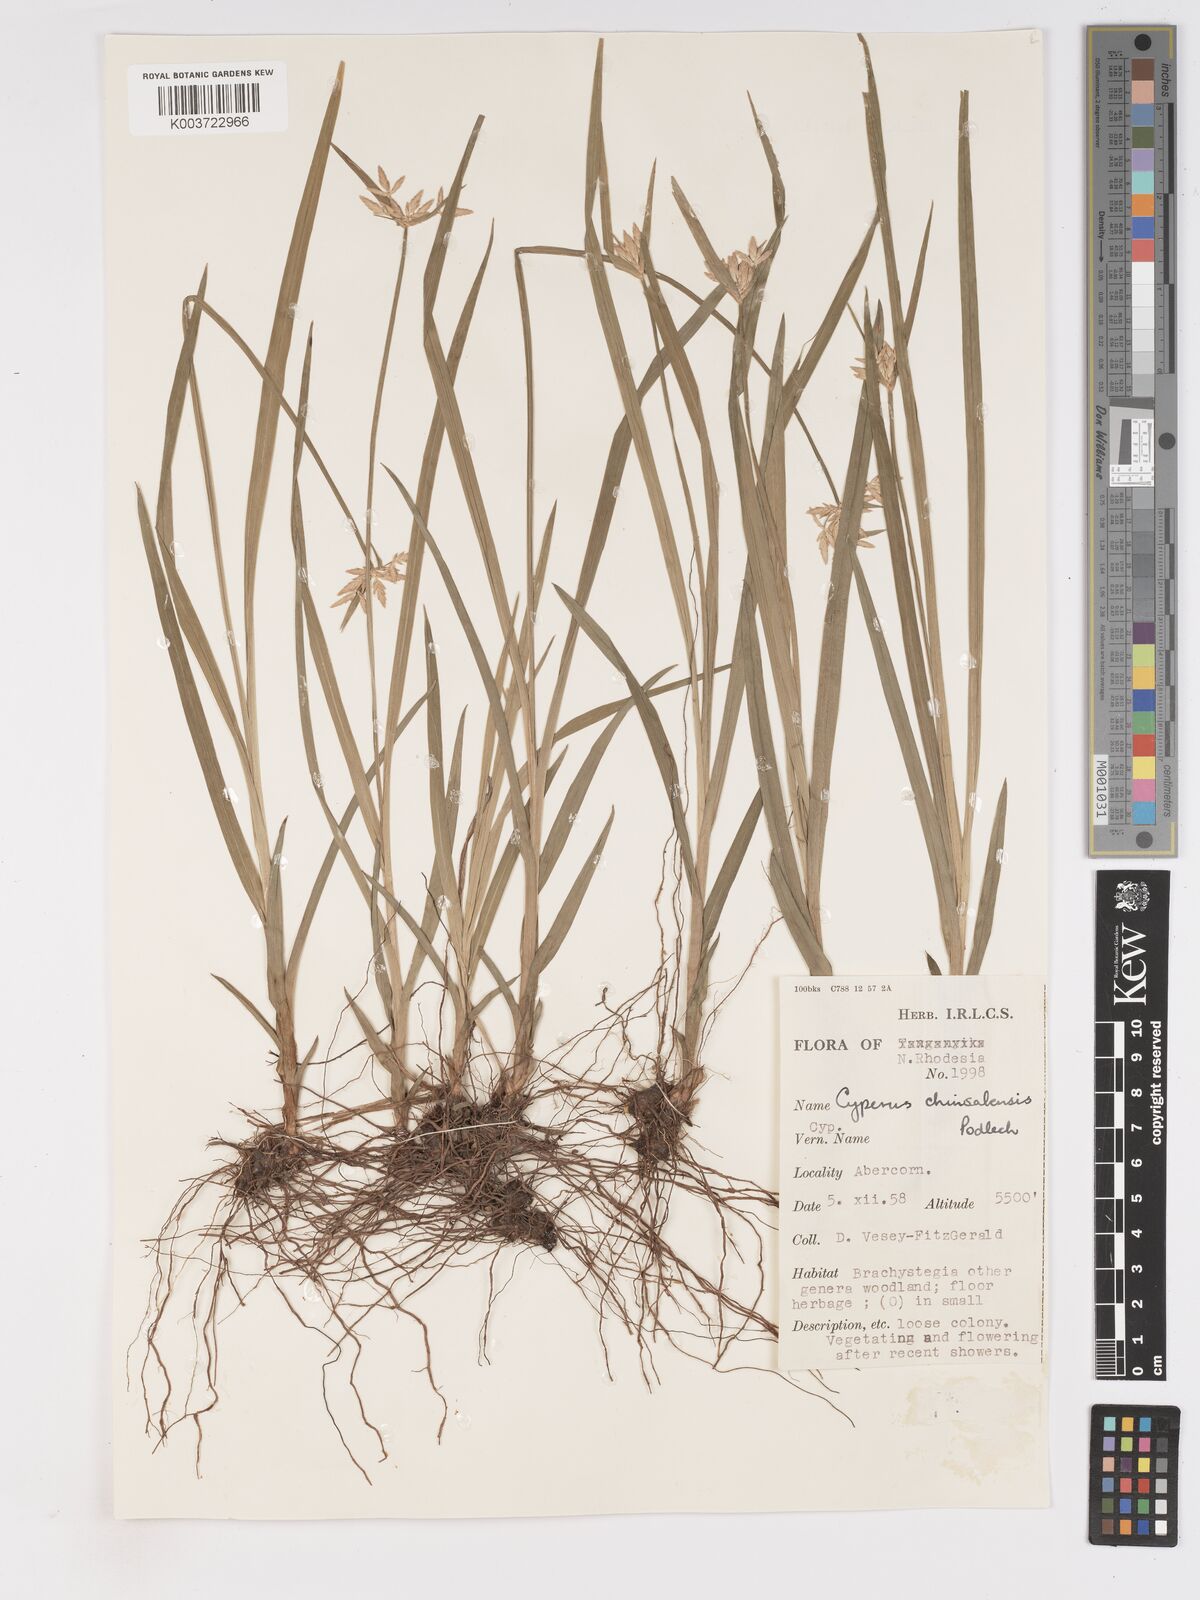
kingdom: Plantae
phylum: Tracheophyta
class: Liliopsida
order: Poales
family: Cyperaceae
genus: Cyperus
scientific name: Cyperus chinsalensis
